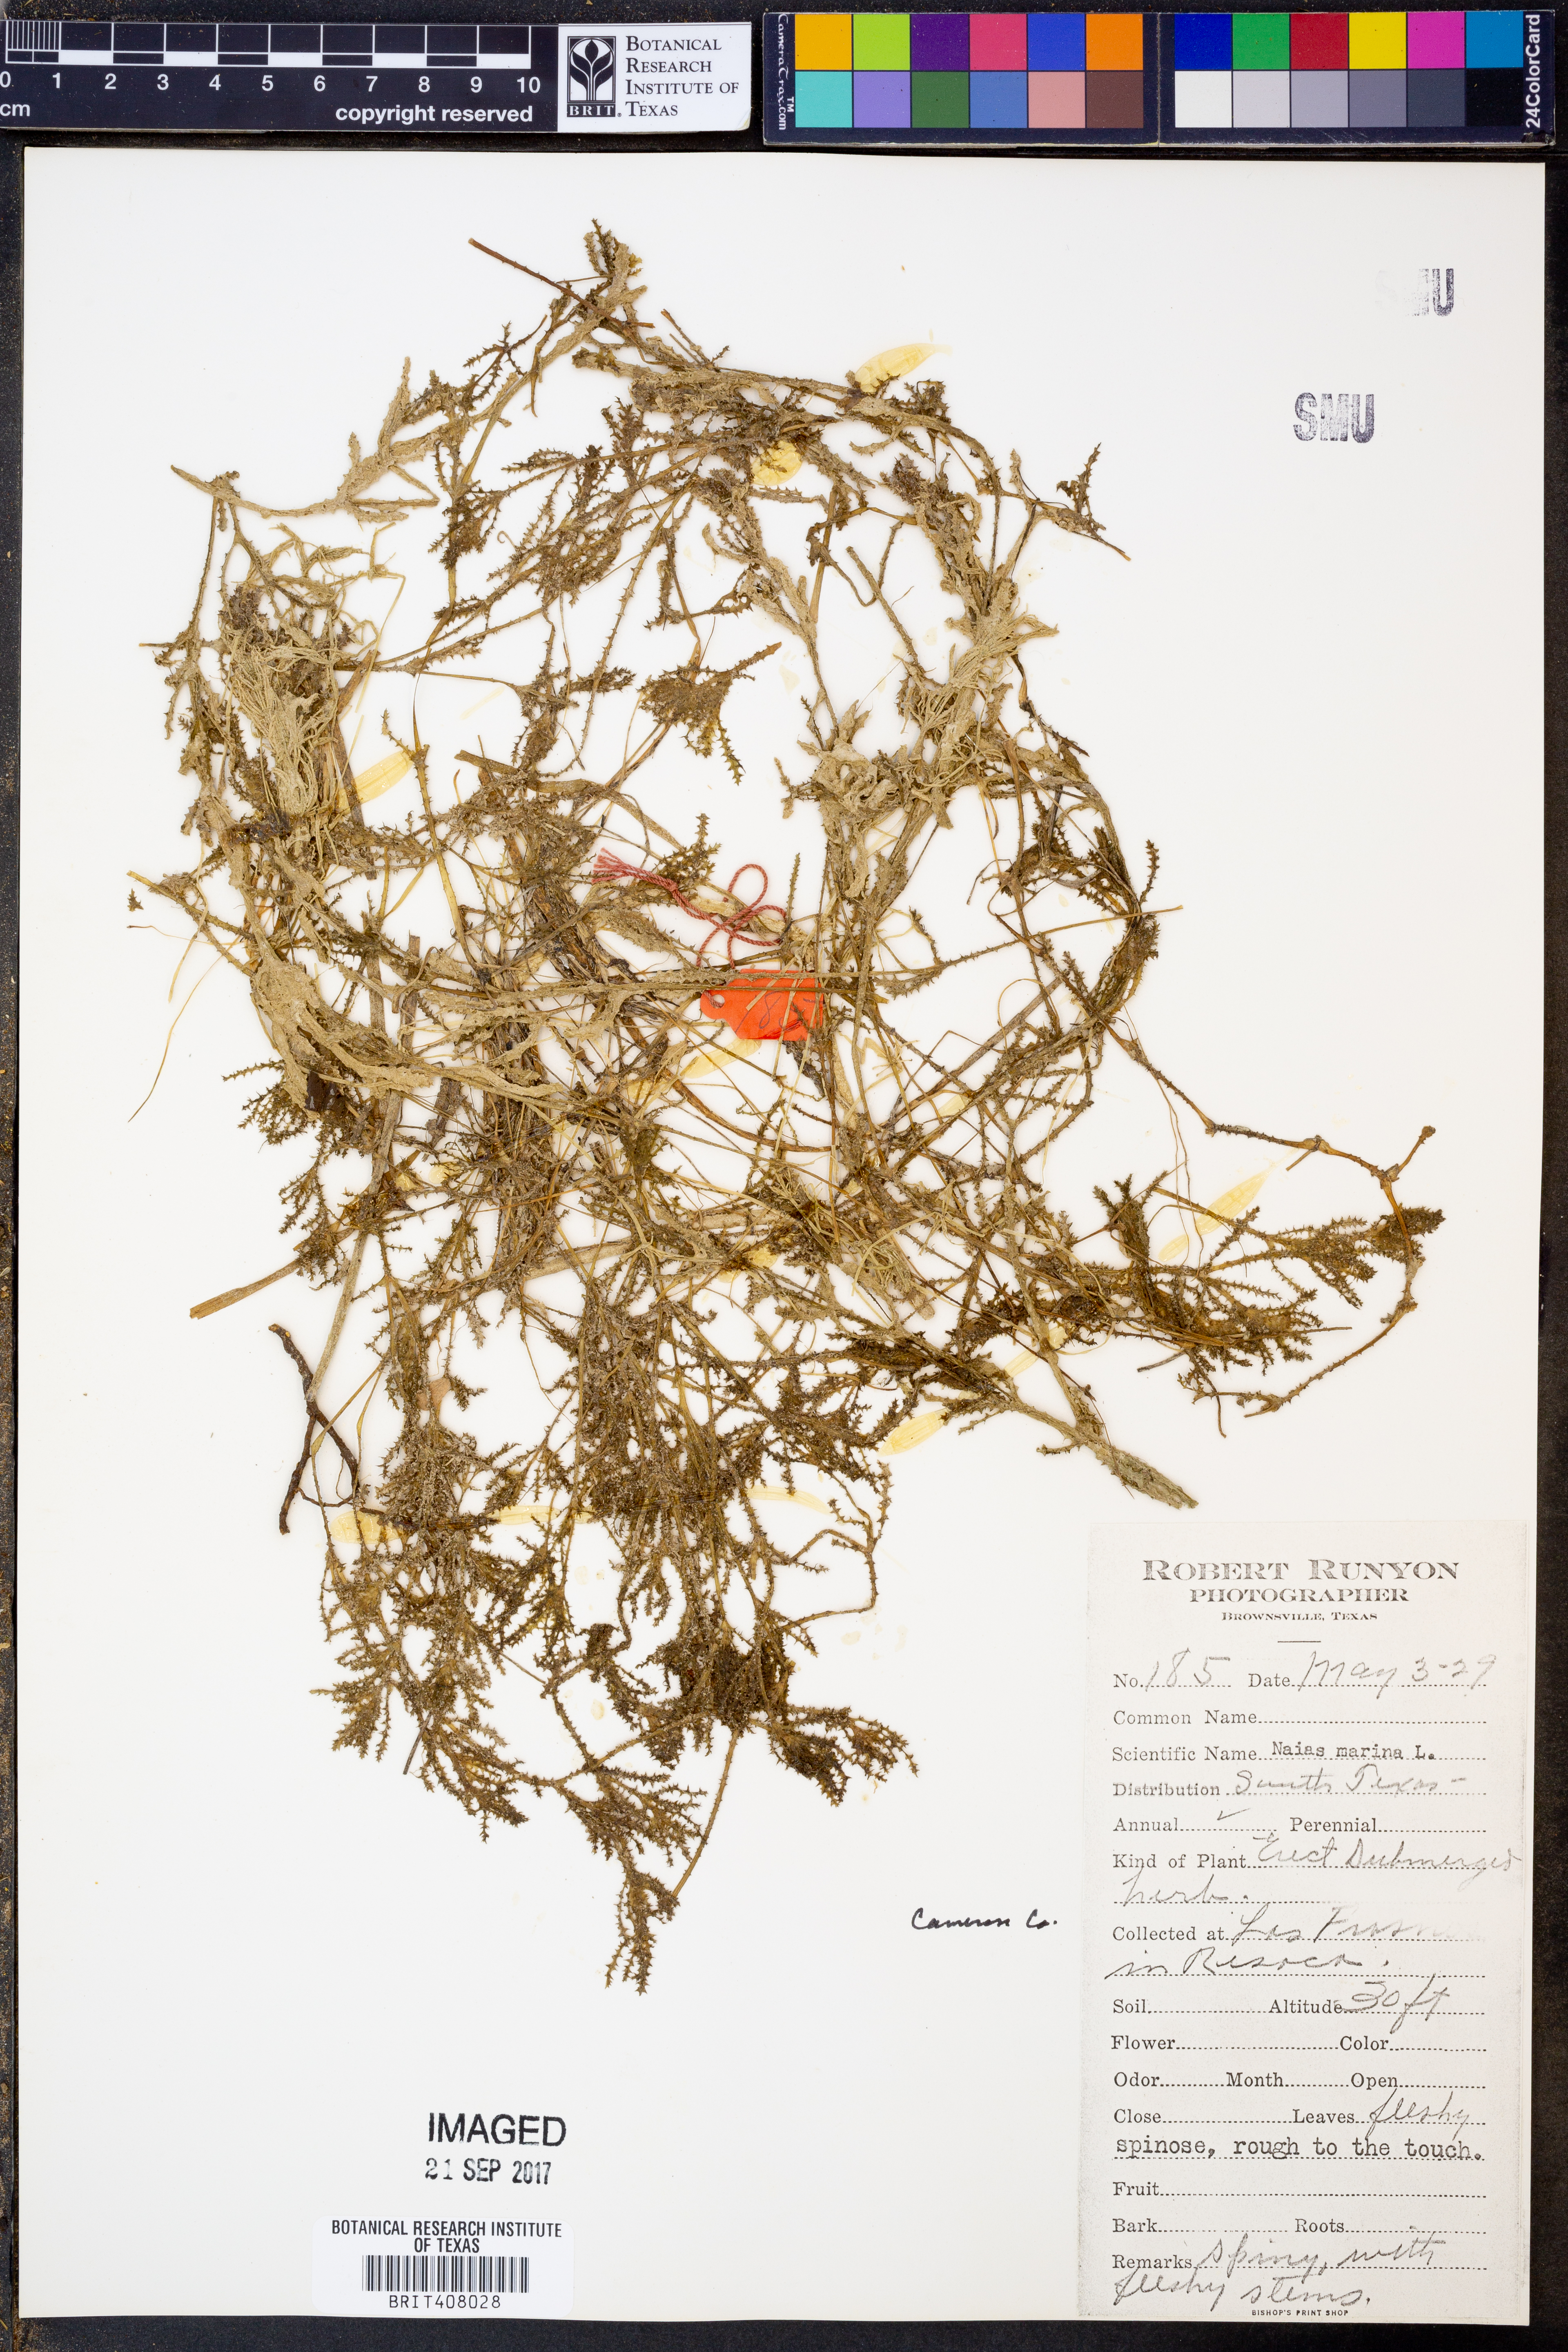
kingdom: Plantae
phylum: Tracheophyta
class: Liliopsida
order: Alismatales
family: Hydrocharitaceae
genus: Najas
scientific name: Najas marina
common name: Holly-leaved naiad
